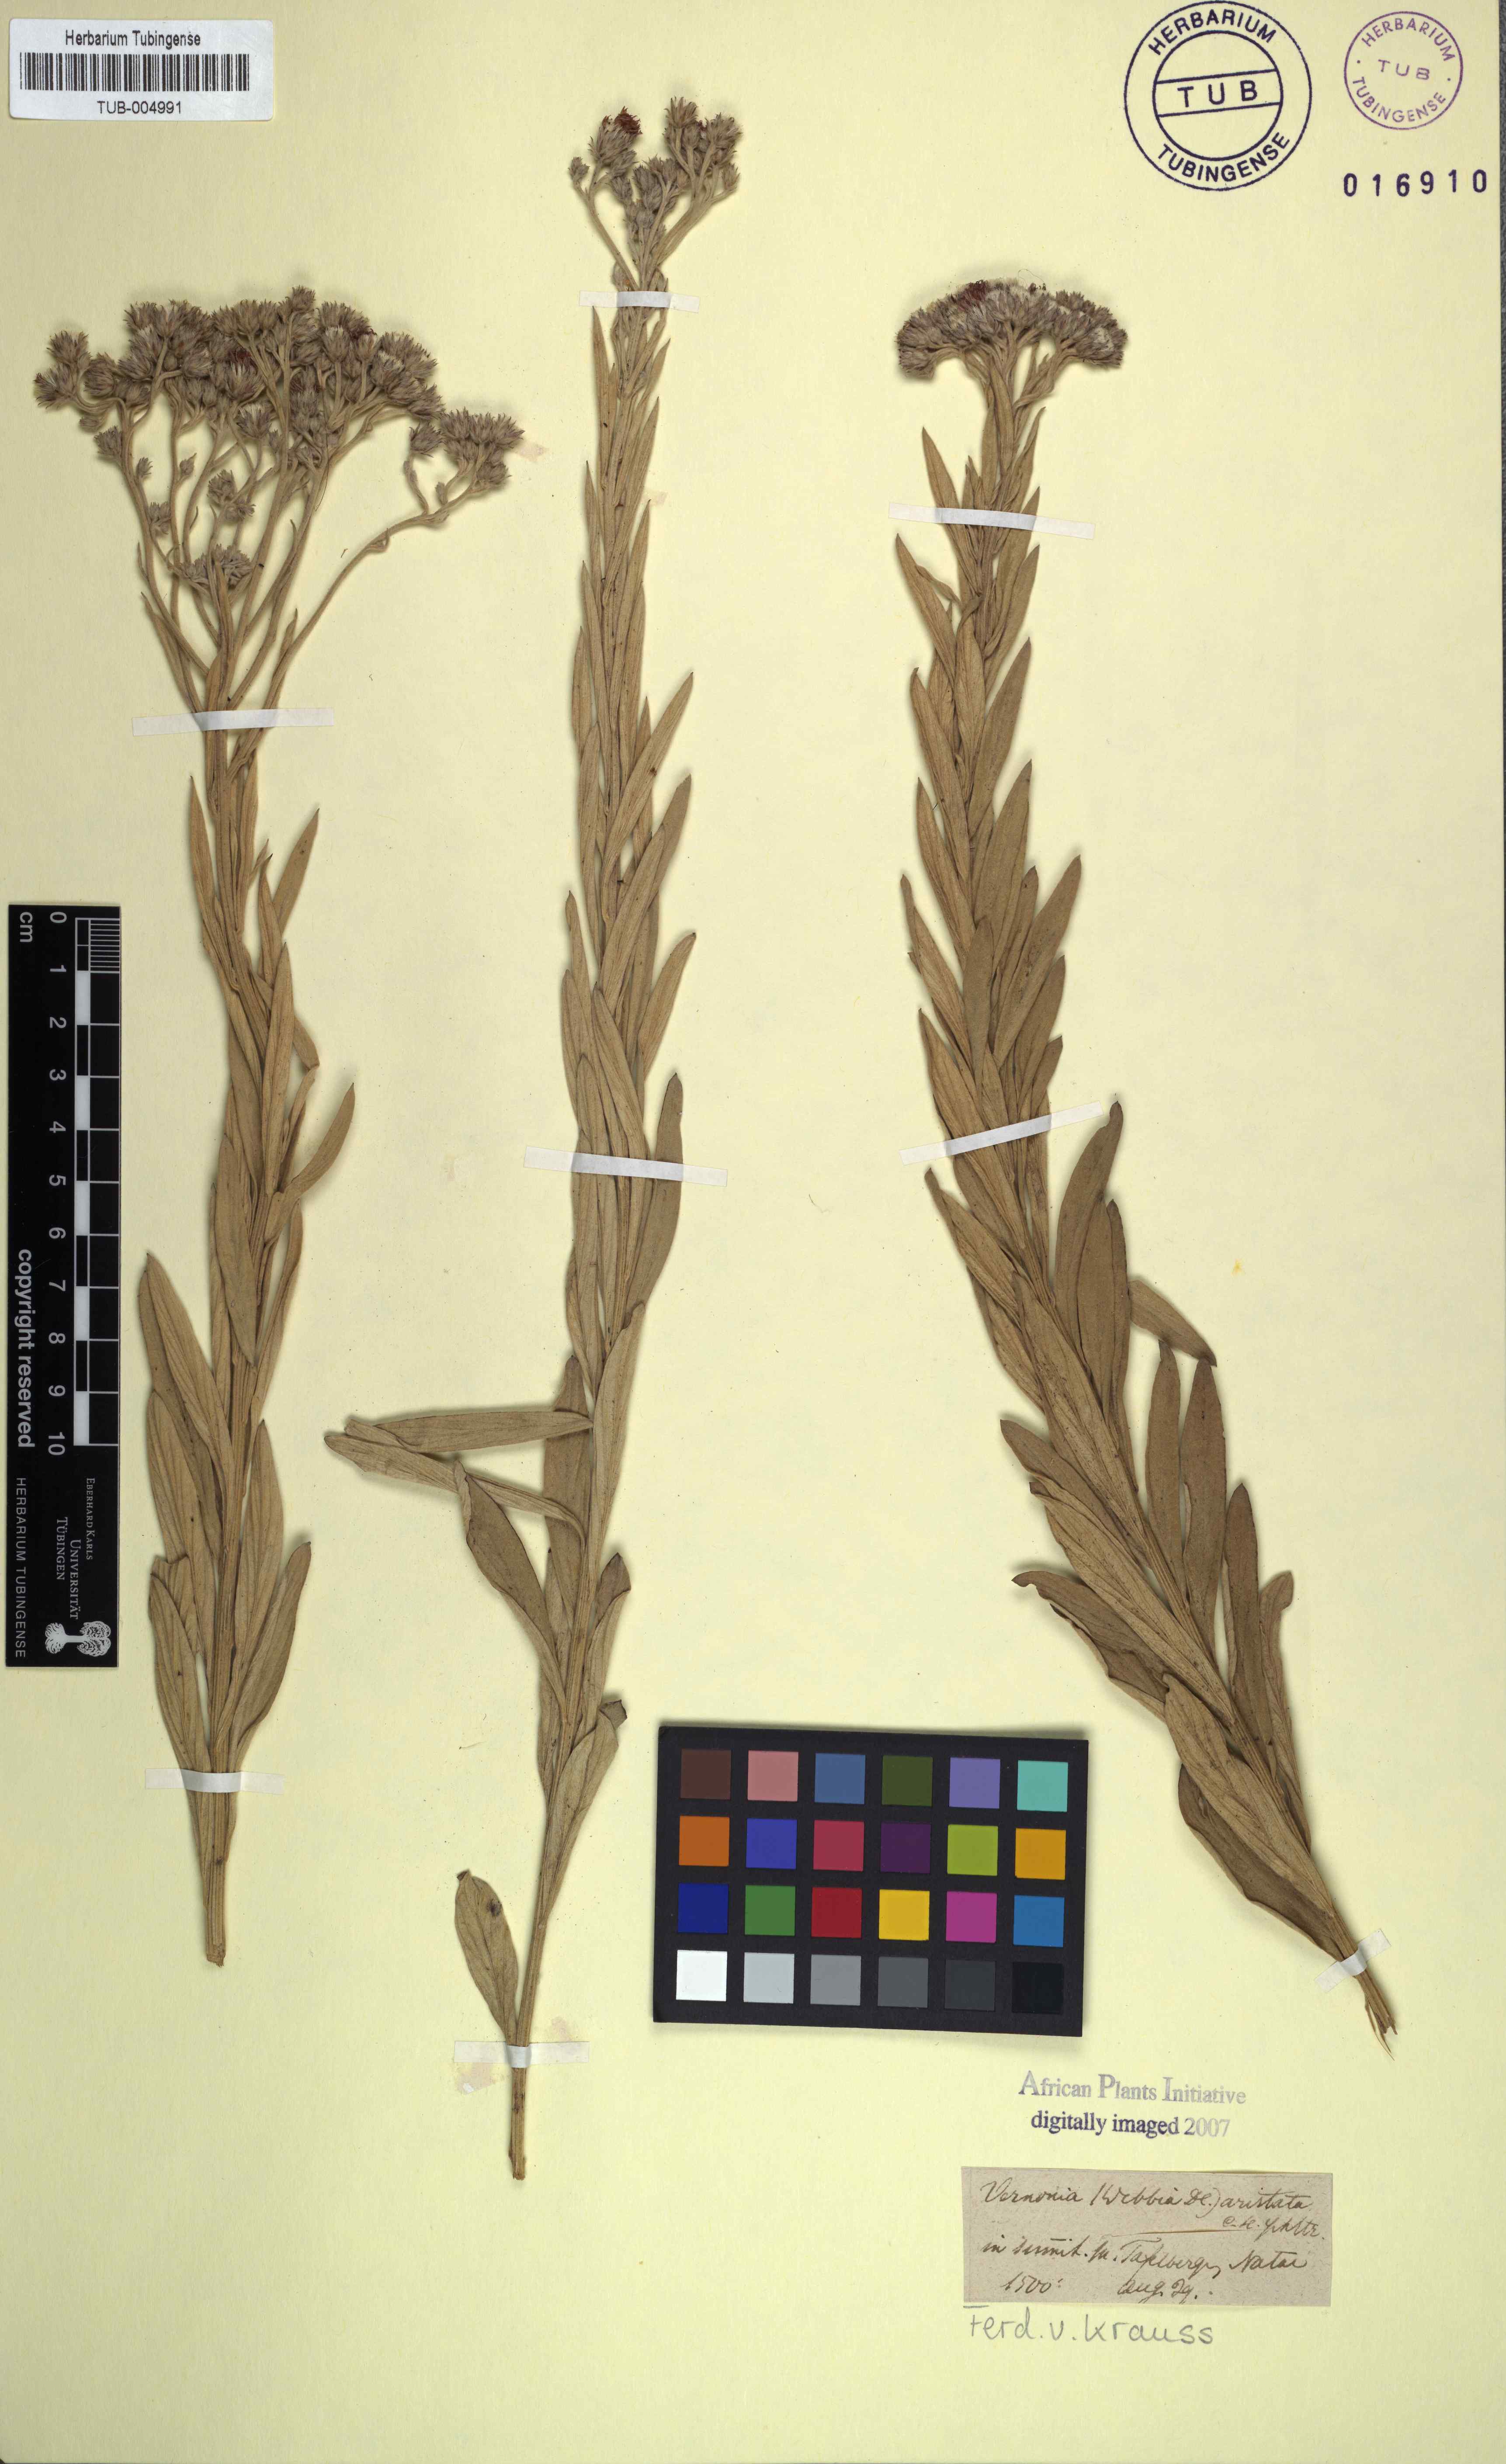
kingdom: Plantae
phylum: Tracheophyta
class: Magnoliopsida
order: Asterales
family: Asteraceae
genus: Hilliardiella
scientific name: Hilliardiella aristata
